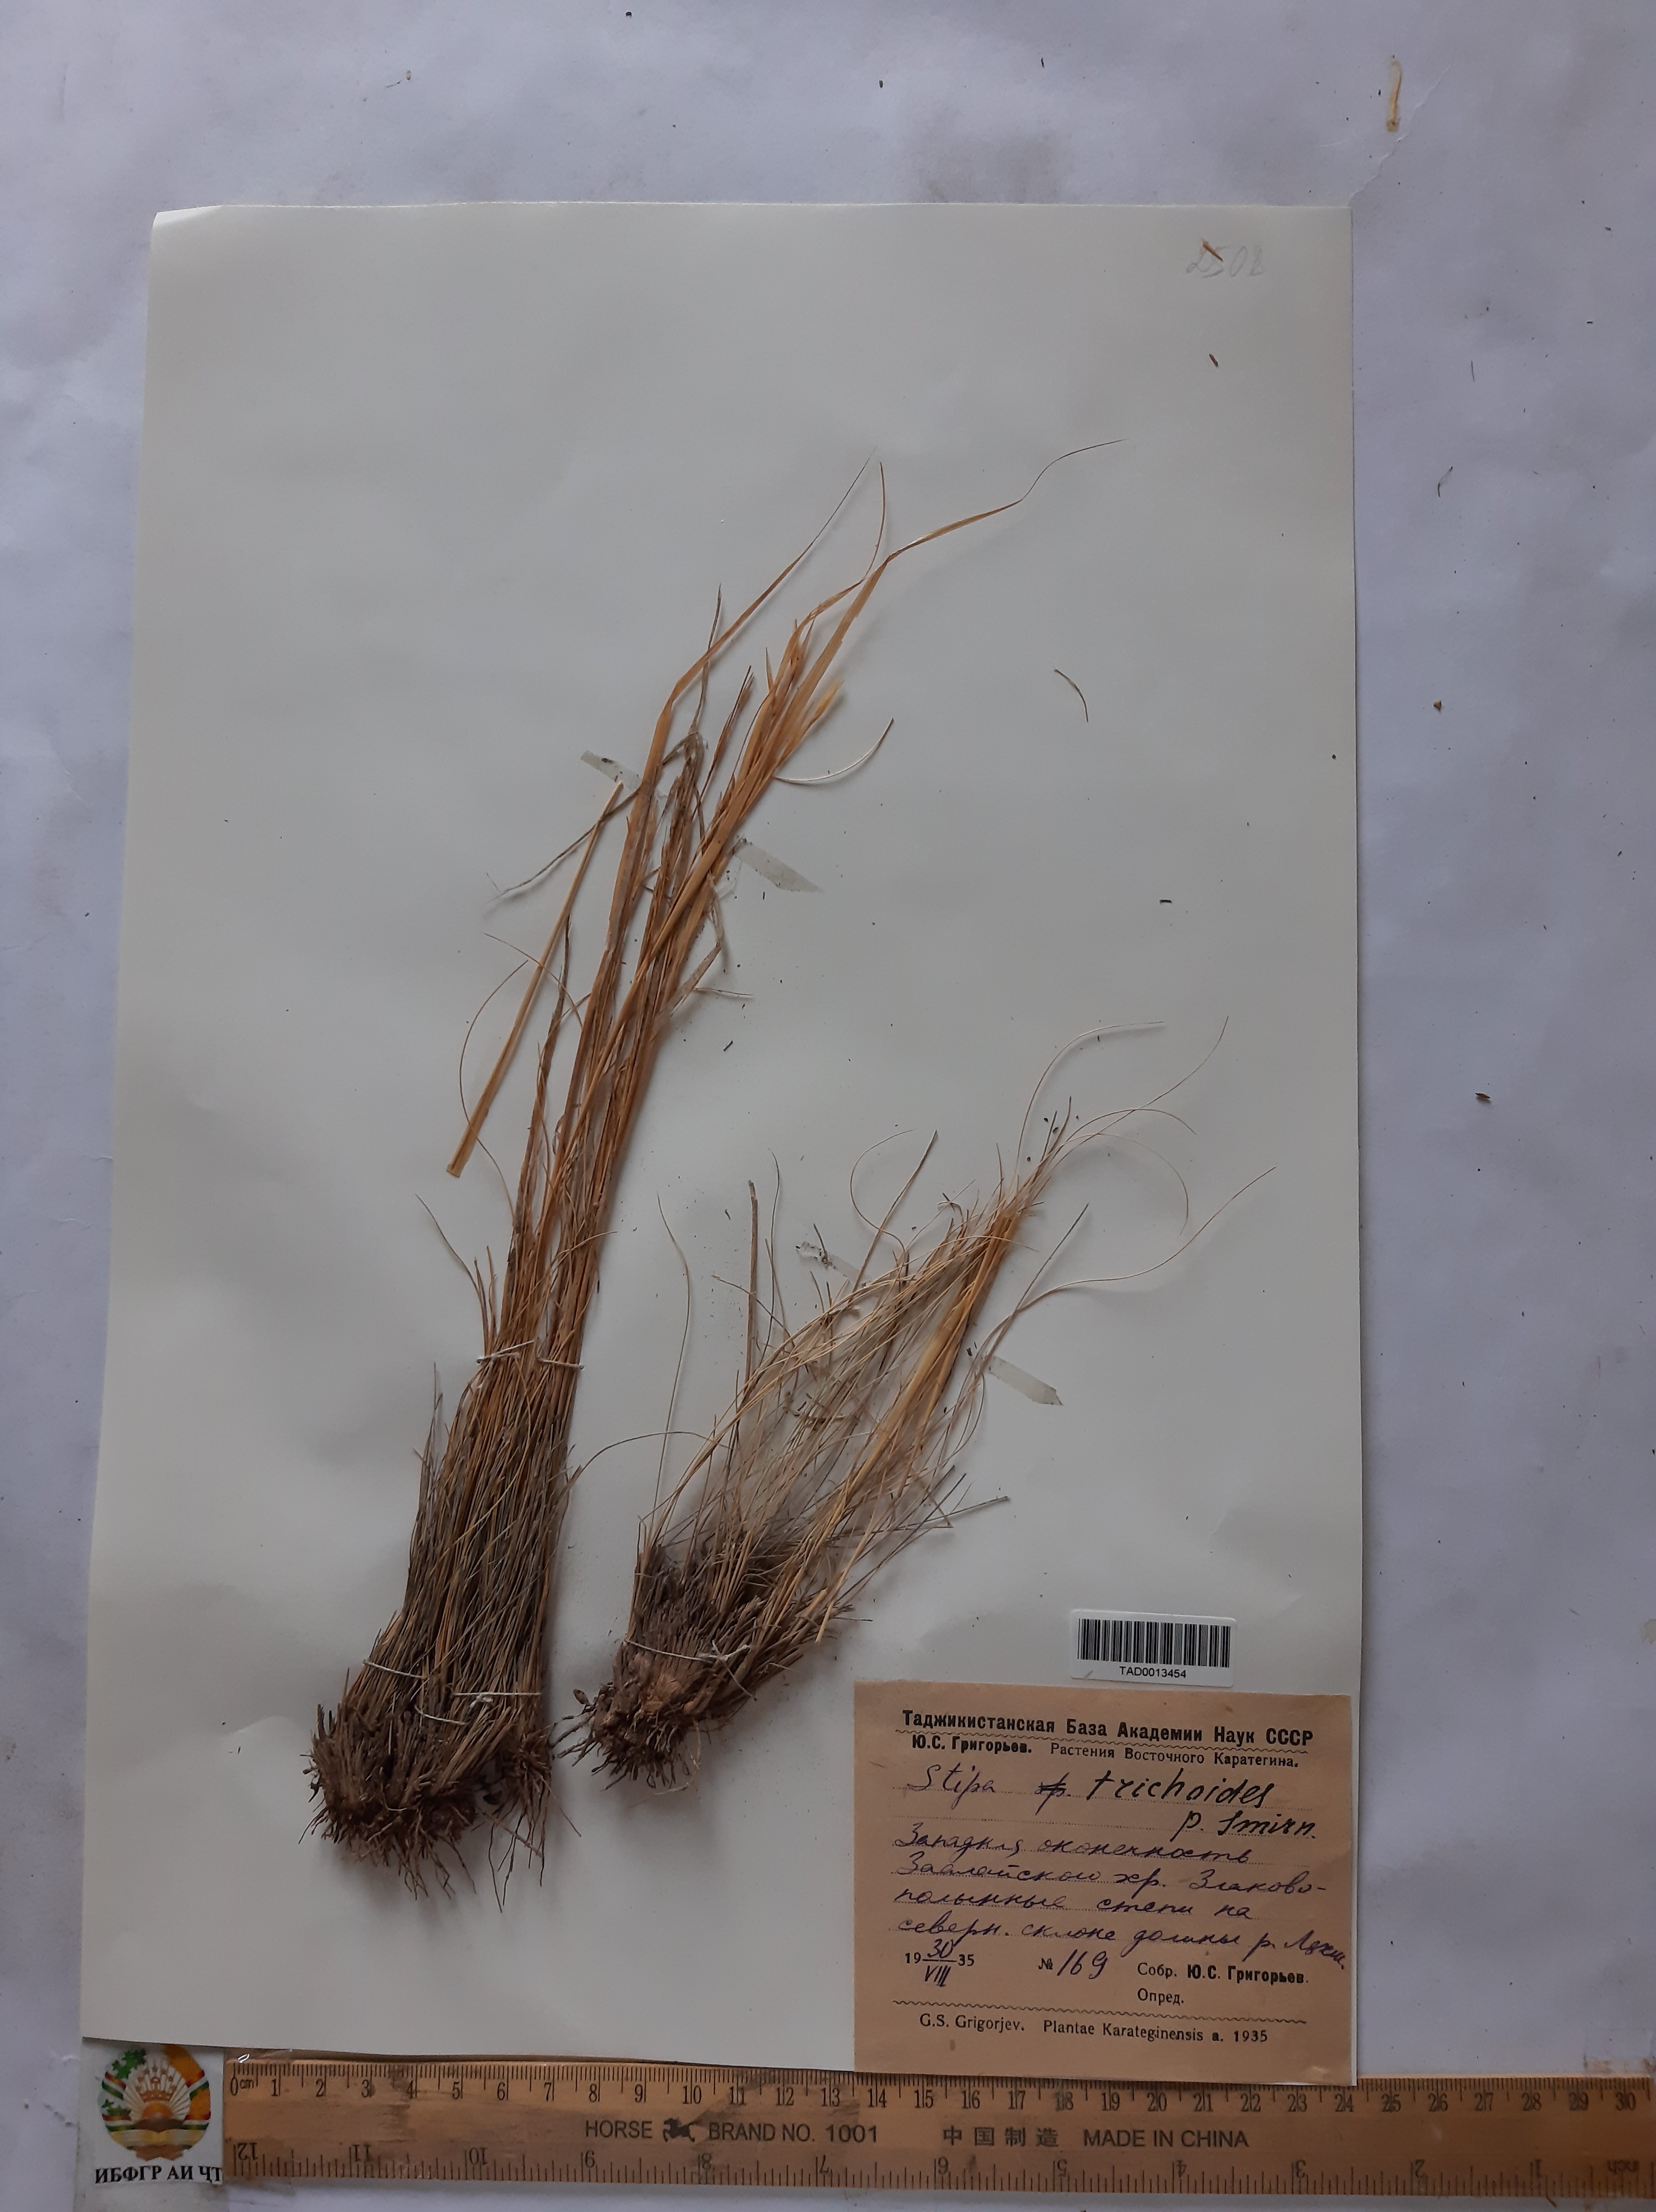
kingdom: Plantae
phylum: Tracheophyta
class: Liliopsida
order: Poales
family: Poaceae
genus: Stipa
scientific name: Stipa trichoides
